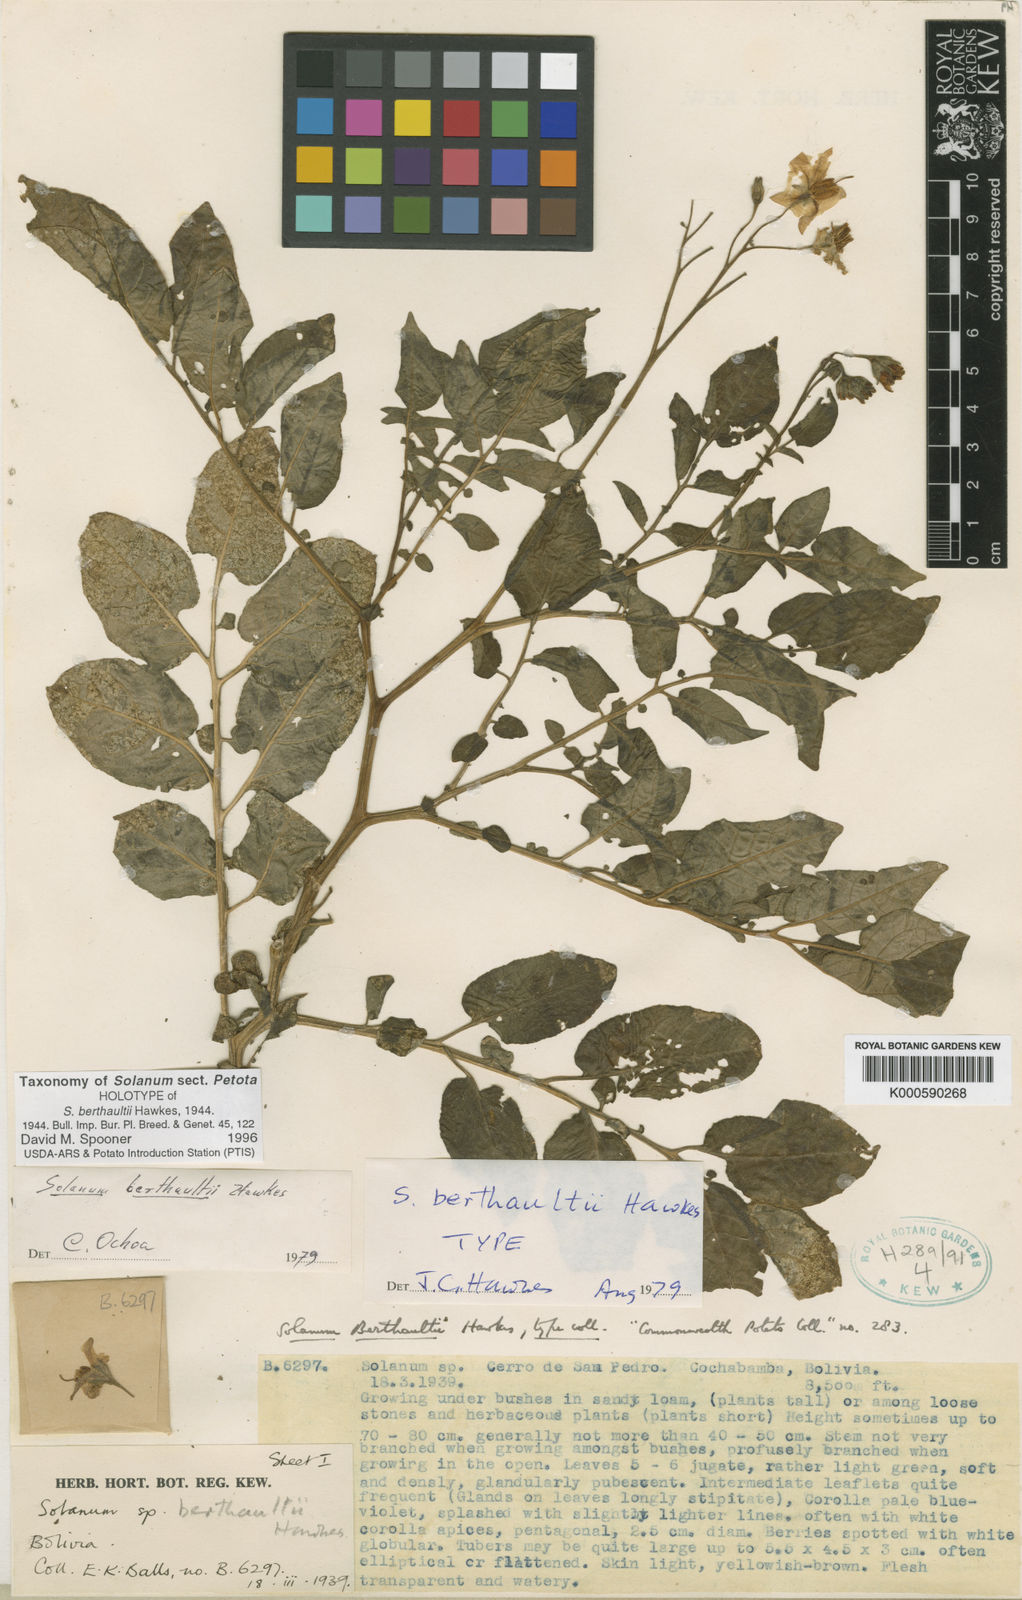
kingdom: Plantae
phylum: Tracheophyta
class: Magnoliopsida
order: Solanales
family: Solanaceae
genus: Solanum
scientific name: Solanum berthaultii
